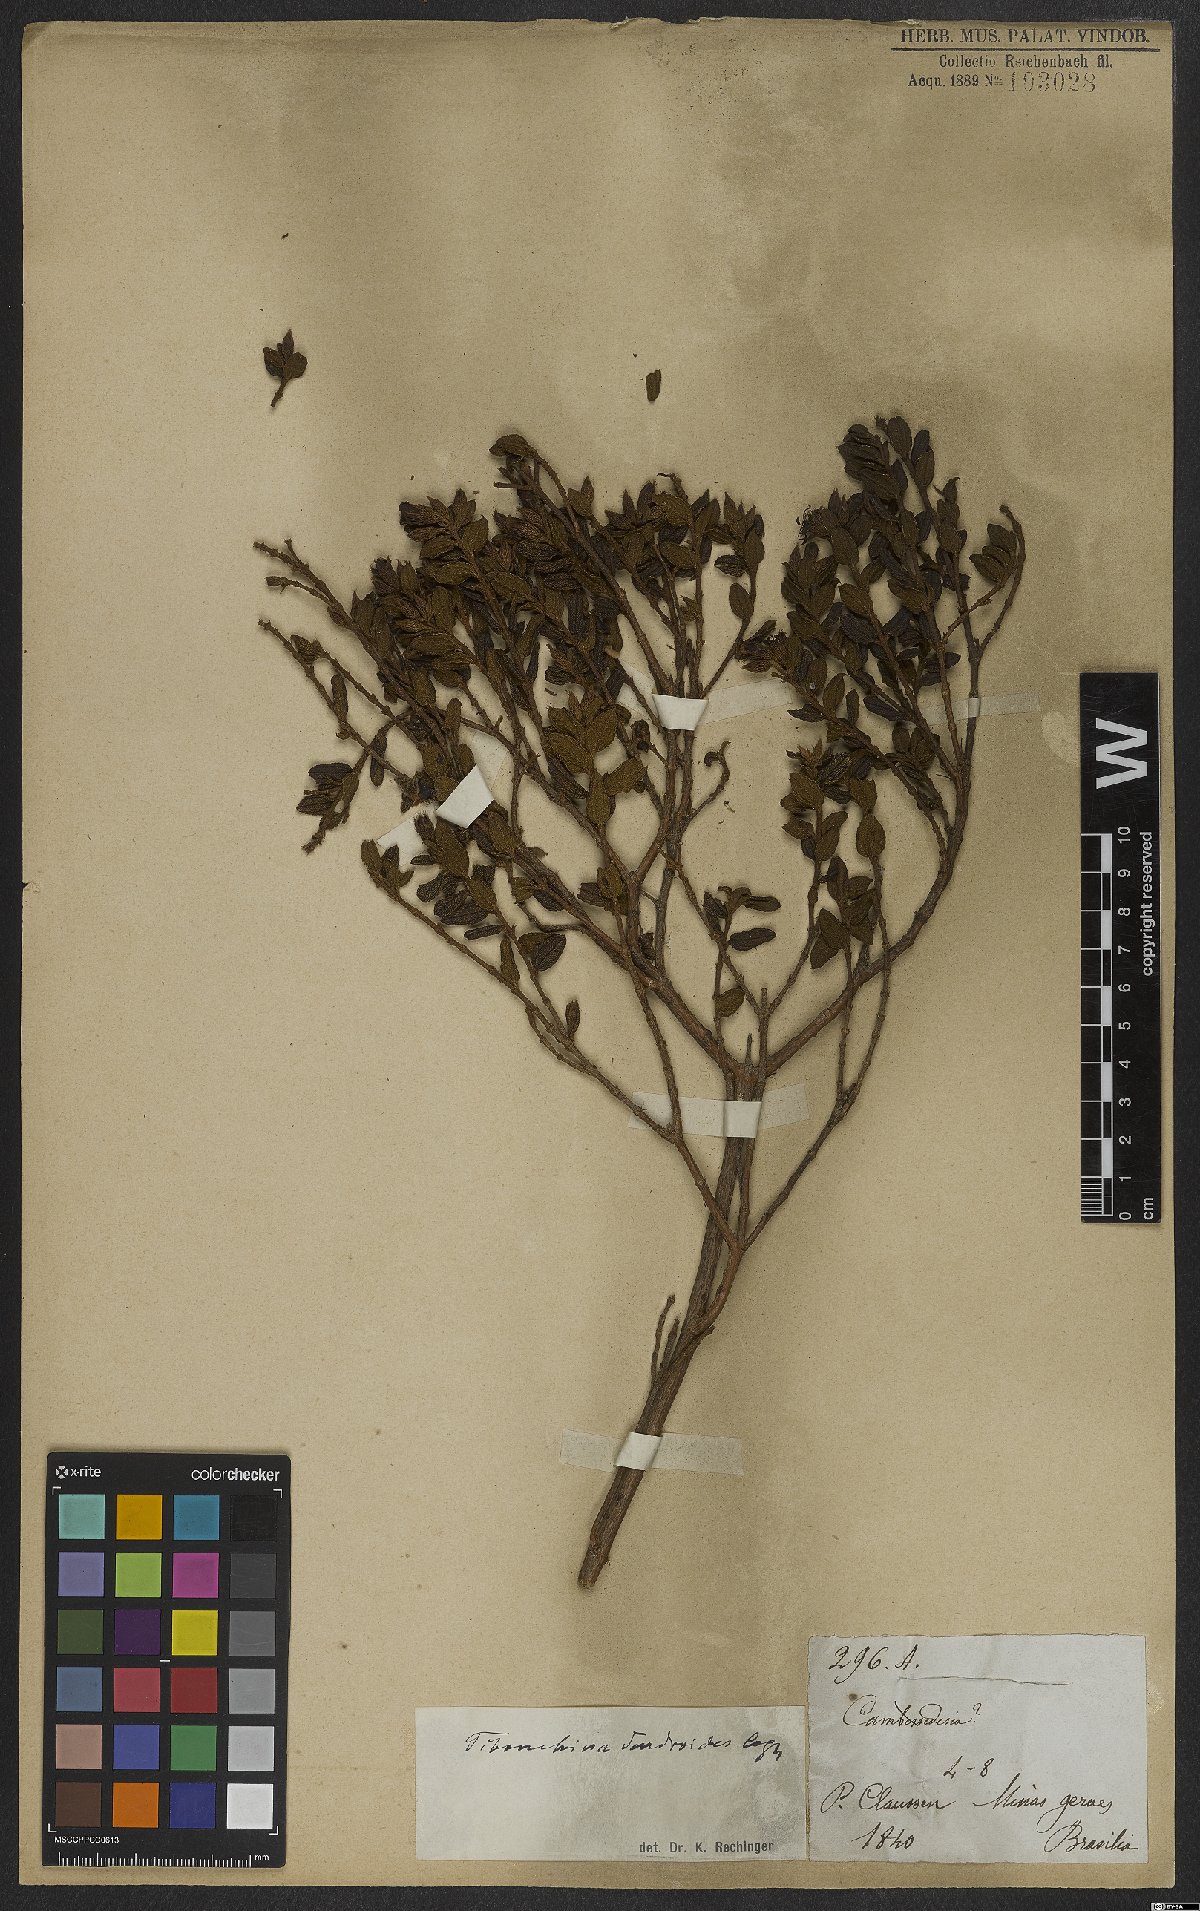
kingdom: Plantae
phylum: Tracheophyta
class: Magnoliopsida
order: Myrtales
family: Melastomataceae
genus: Pleroma
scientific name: Pleroma dendroides
